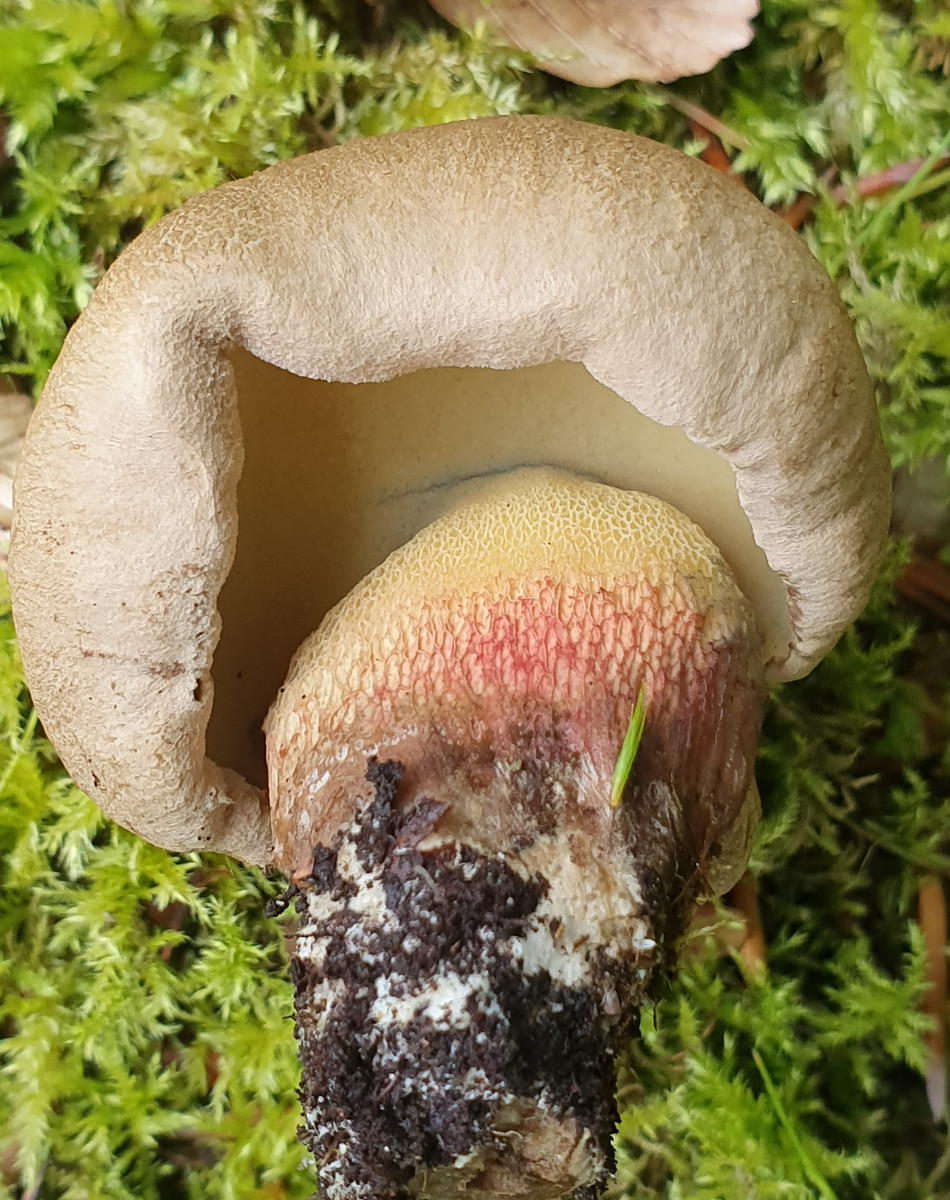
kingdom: Fungi
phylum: Basidiomycota
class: Agaricomycetes
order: Boletales
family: Boletaceae
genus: Caloboletus
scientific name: Caloboletus calopus
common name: skønfodet rørhat
